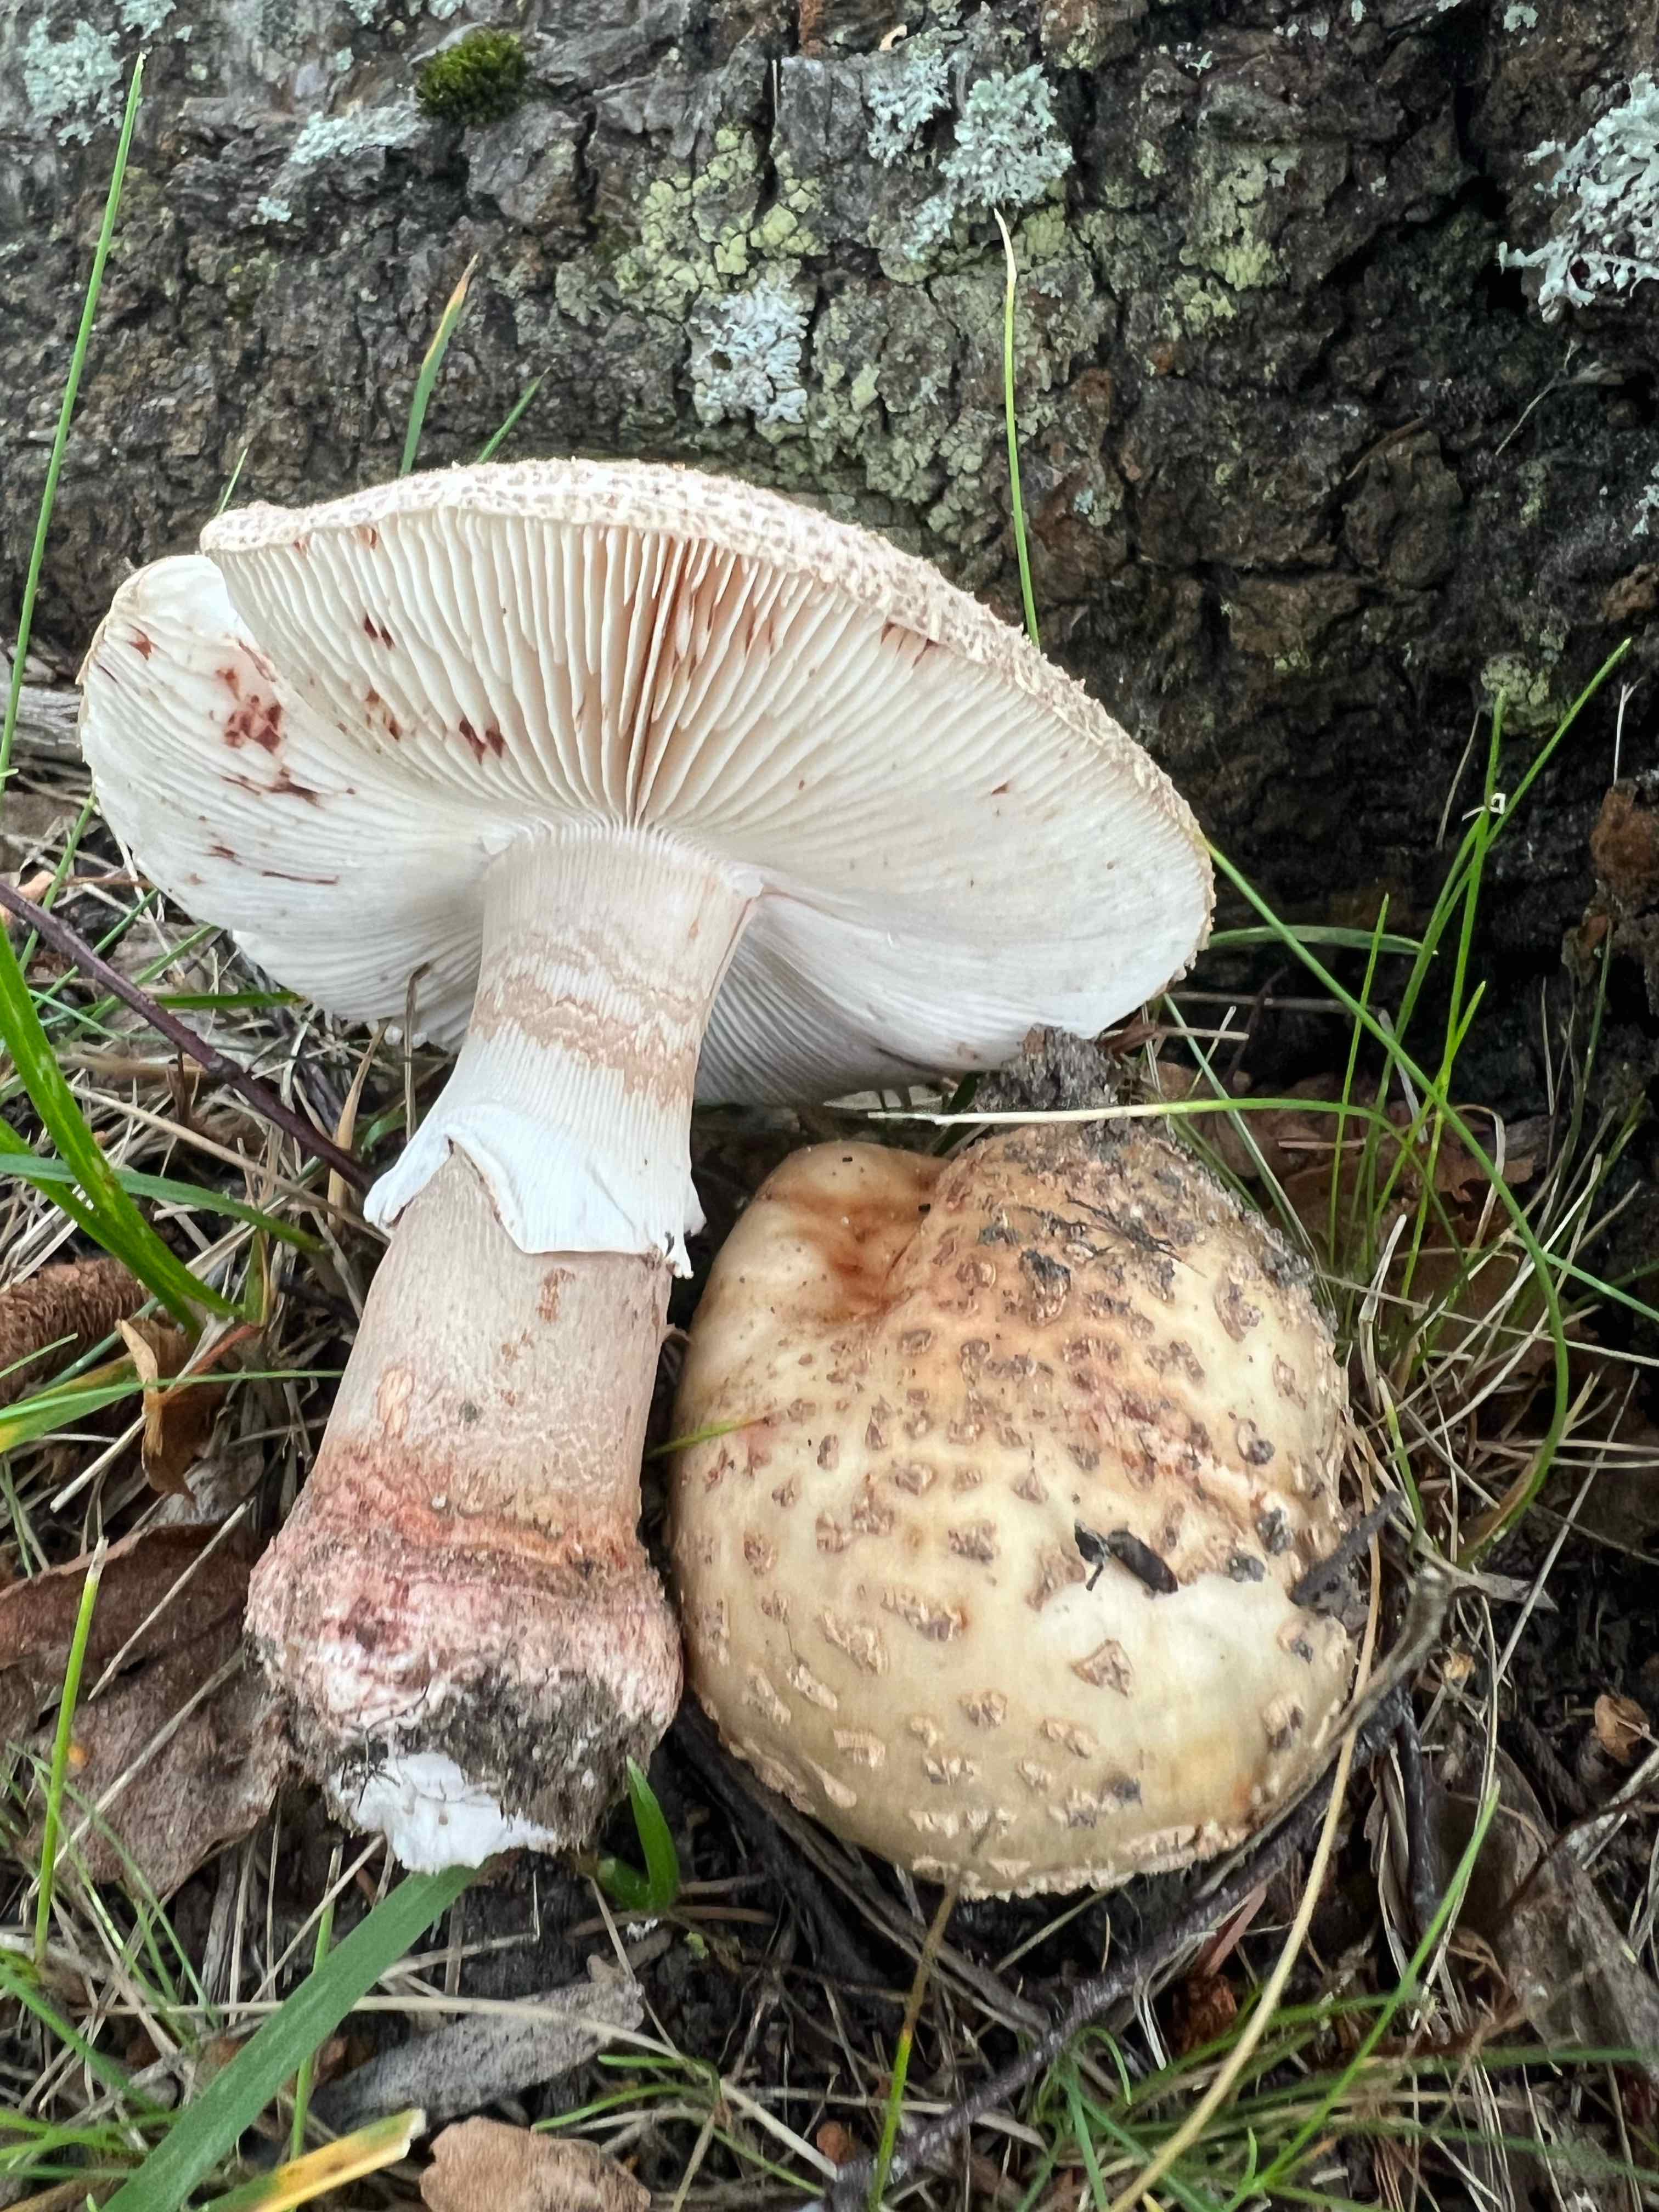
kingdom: Fungi
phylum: Basidiomycota
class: Agaricomycetes
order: Agaricales
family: Amanitaceae
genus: Amanita
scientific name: Amanita rubescens
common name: rødmende fluesvamp
